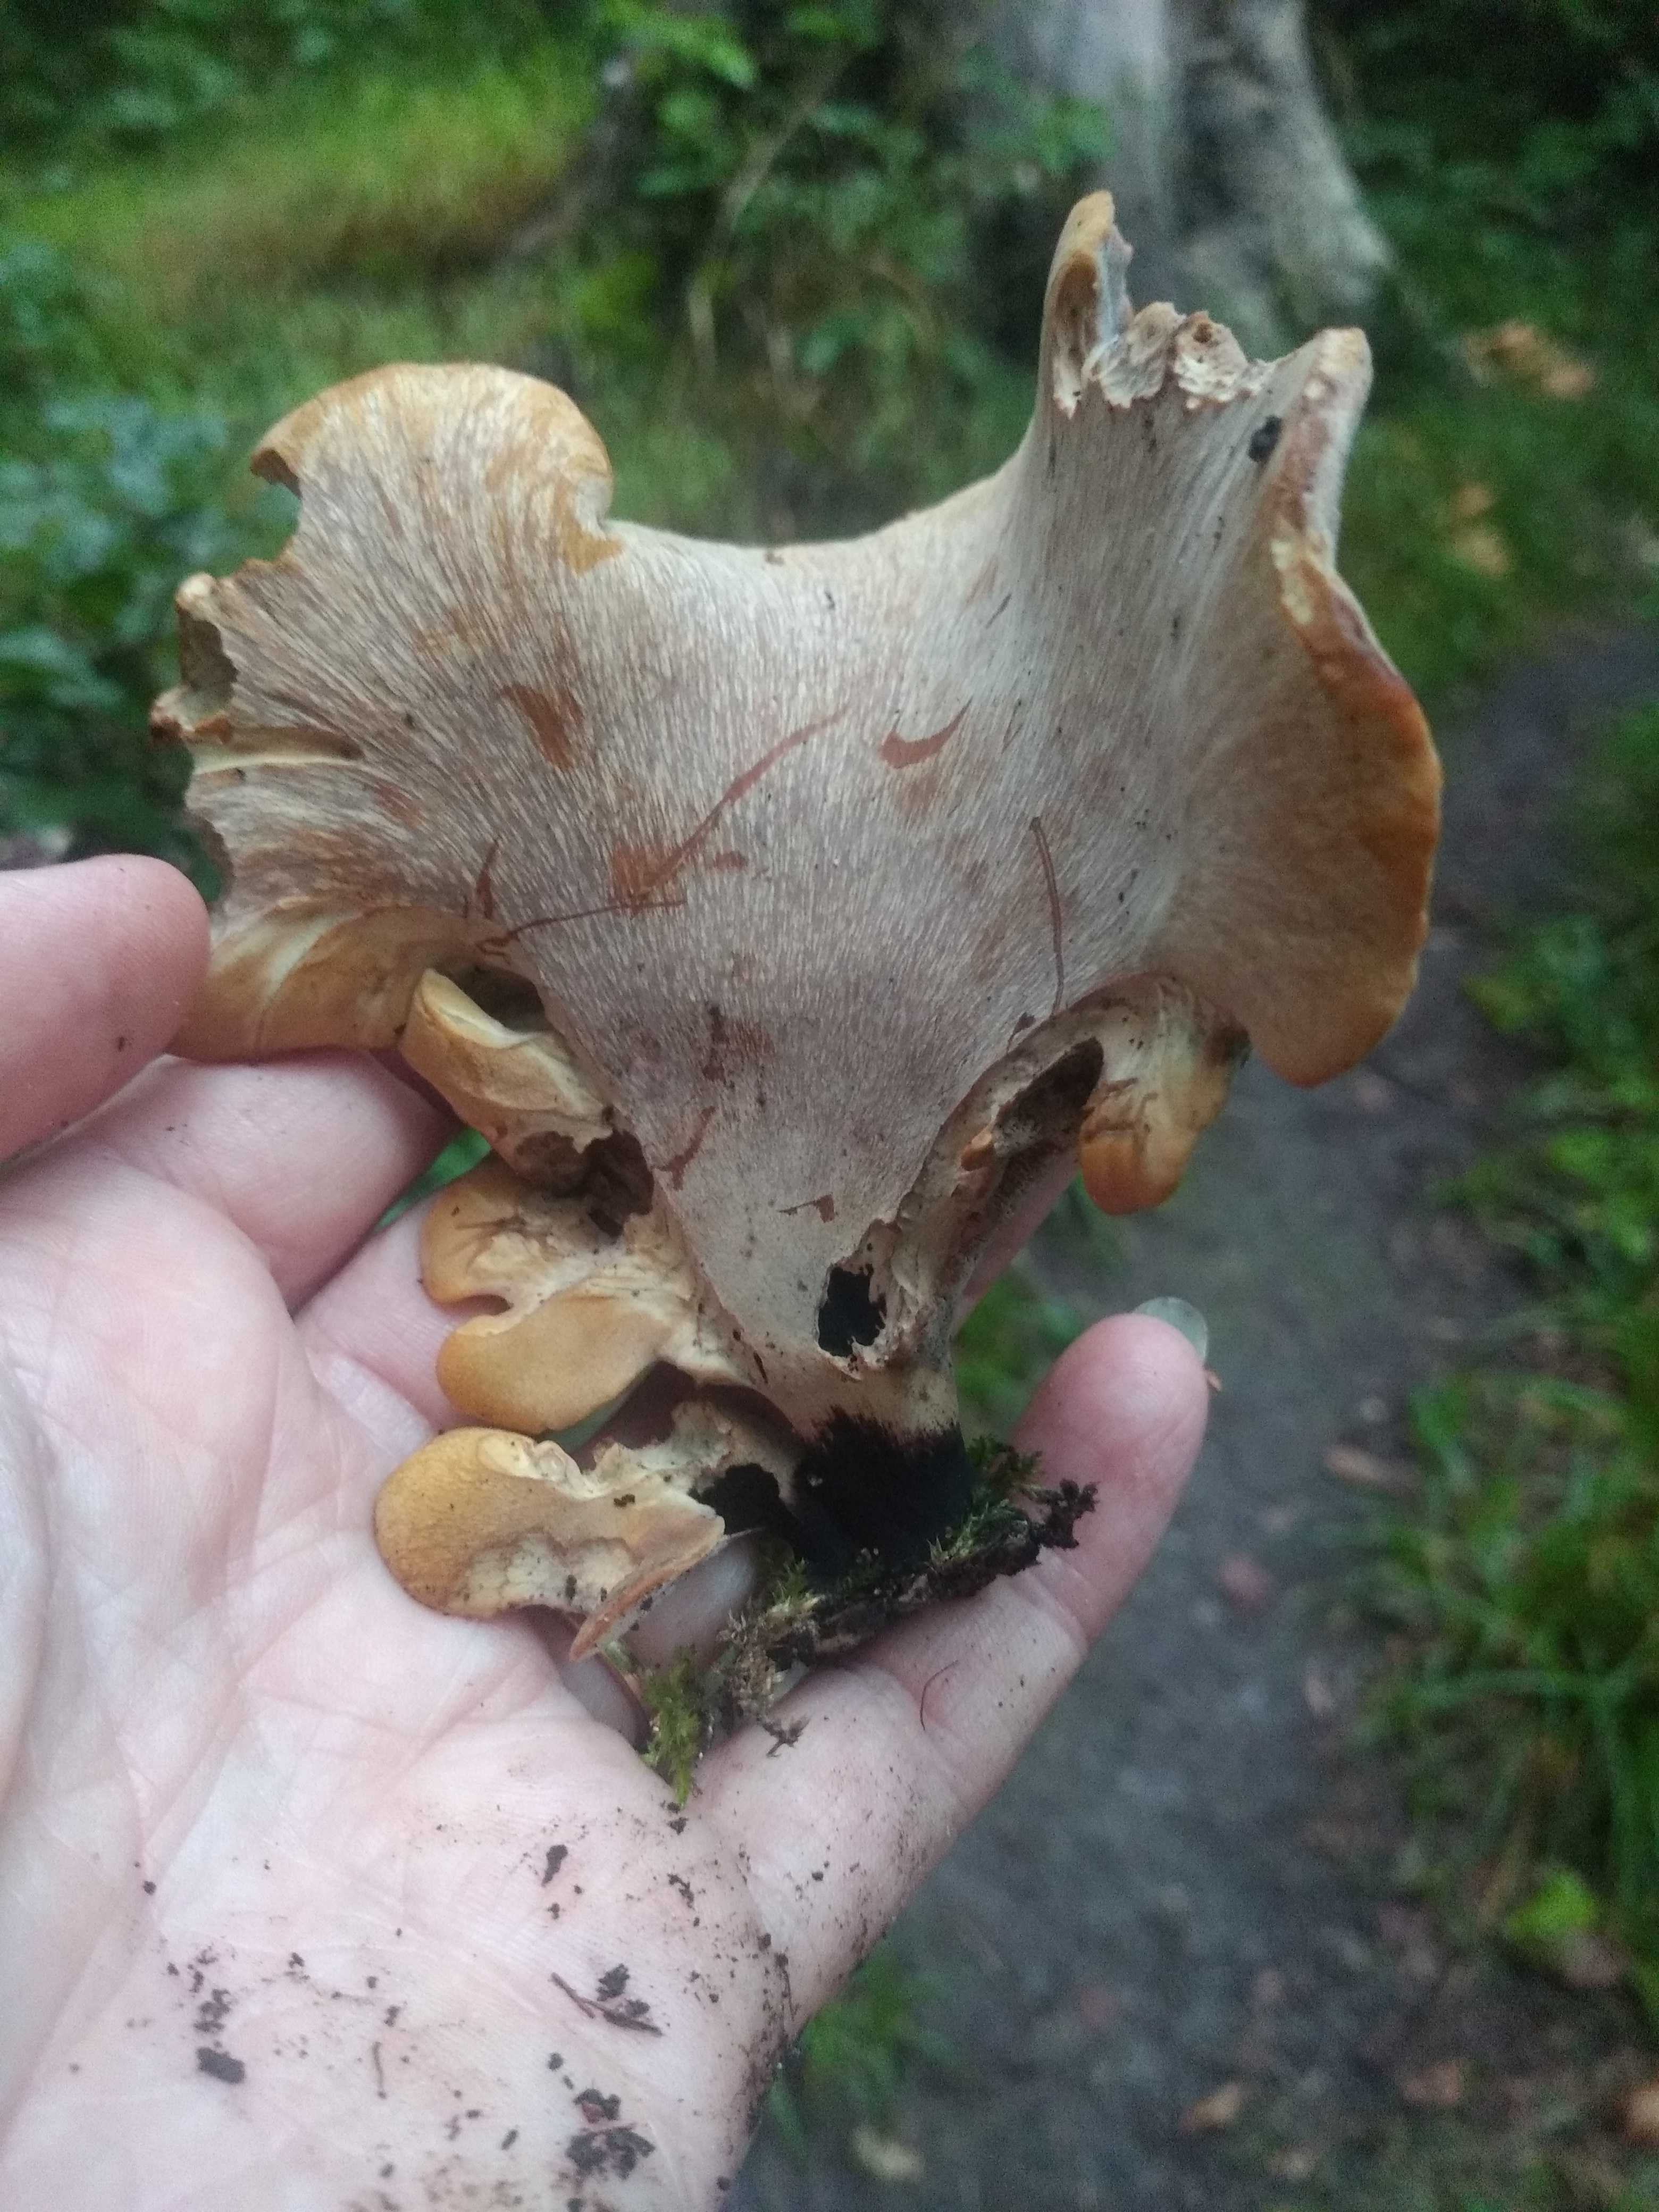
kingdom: Fungi
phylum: Basidiomycota
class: Agaricomycetes
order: Polyporales
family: Polyporaceae
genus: Cerioporus
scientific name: Cerioporus varius
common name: foranderlig stilkporesvamp
